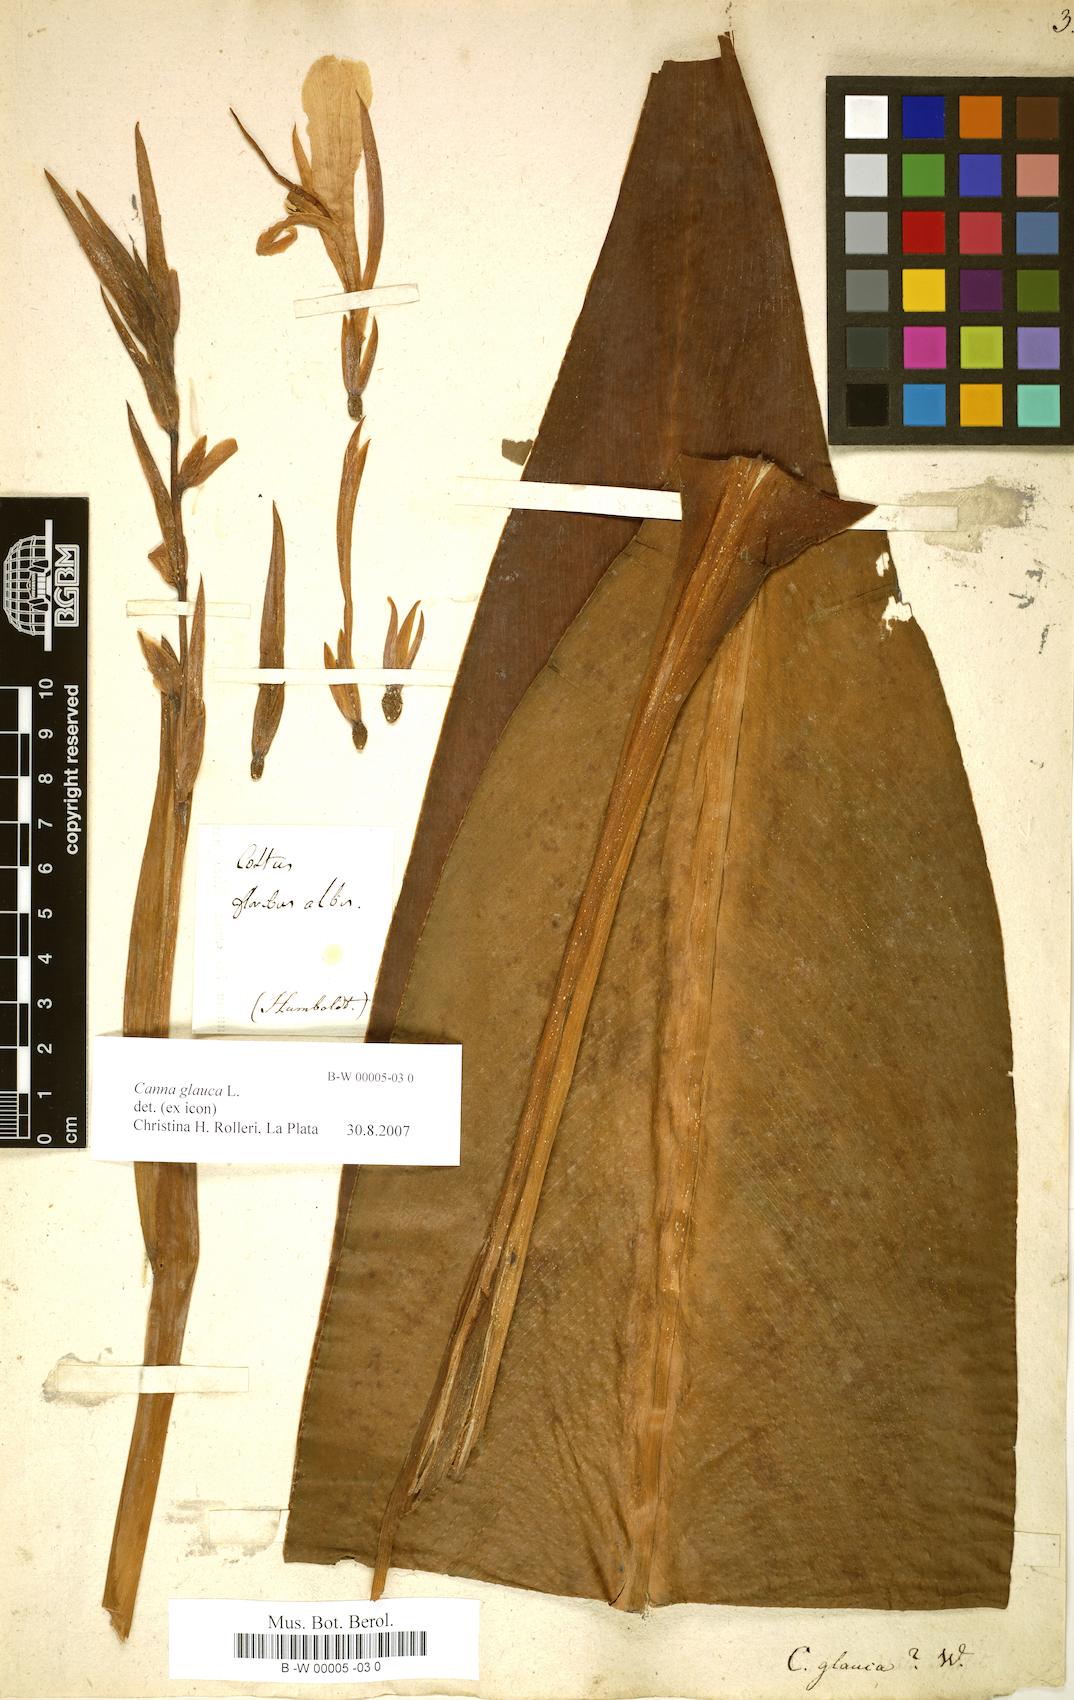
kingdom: Plantae
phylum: Tracheophyta
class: Liliopsida
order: Zingiberales
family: Cannaceae
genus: Canna
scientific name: Canna glauca
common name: Louisiana canna
